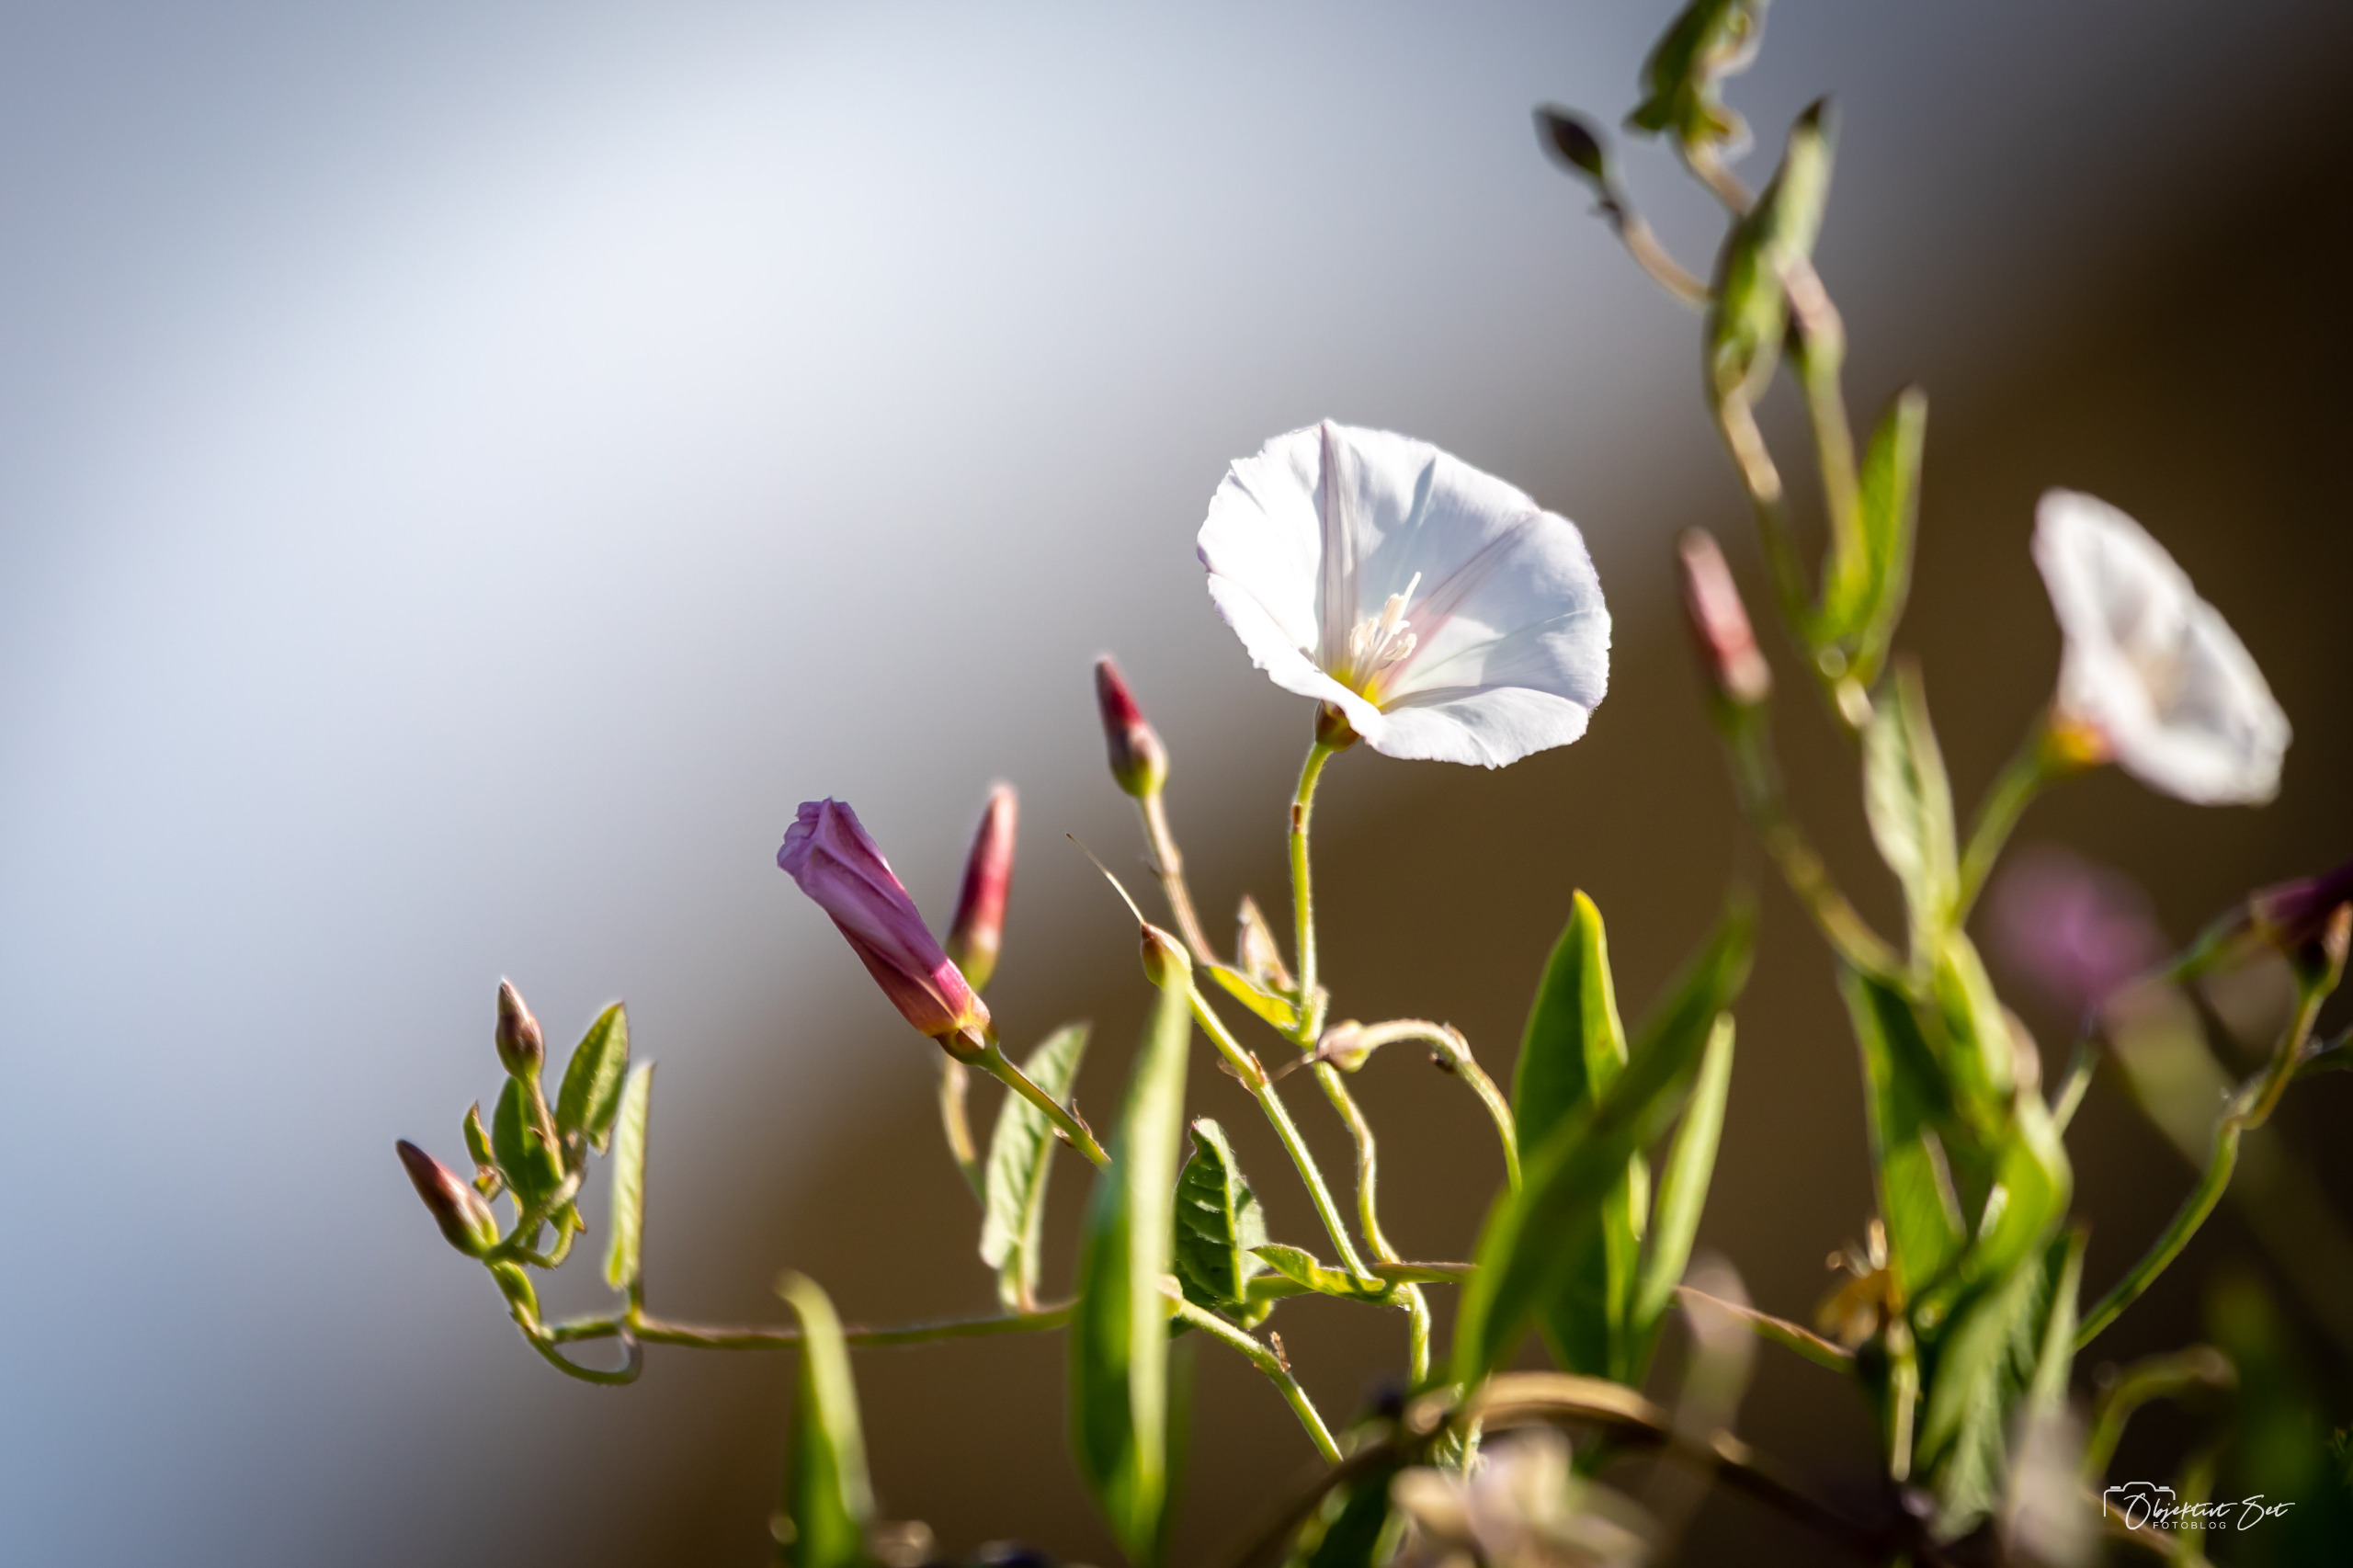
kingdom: Plantae
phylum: Tracheophyta
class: Magnoliopsida
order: Solanales
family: Convolvulaceae
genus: Convolvulus
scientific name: Convolvulus arvensis
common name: Ager-snerle
